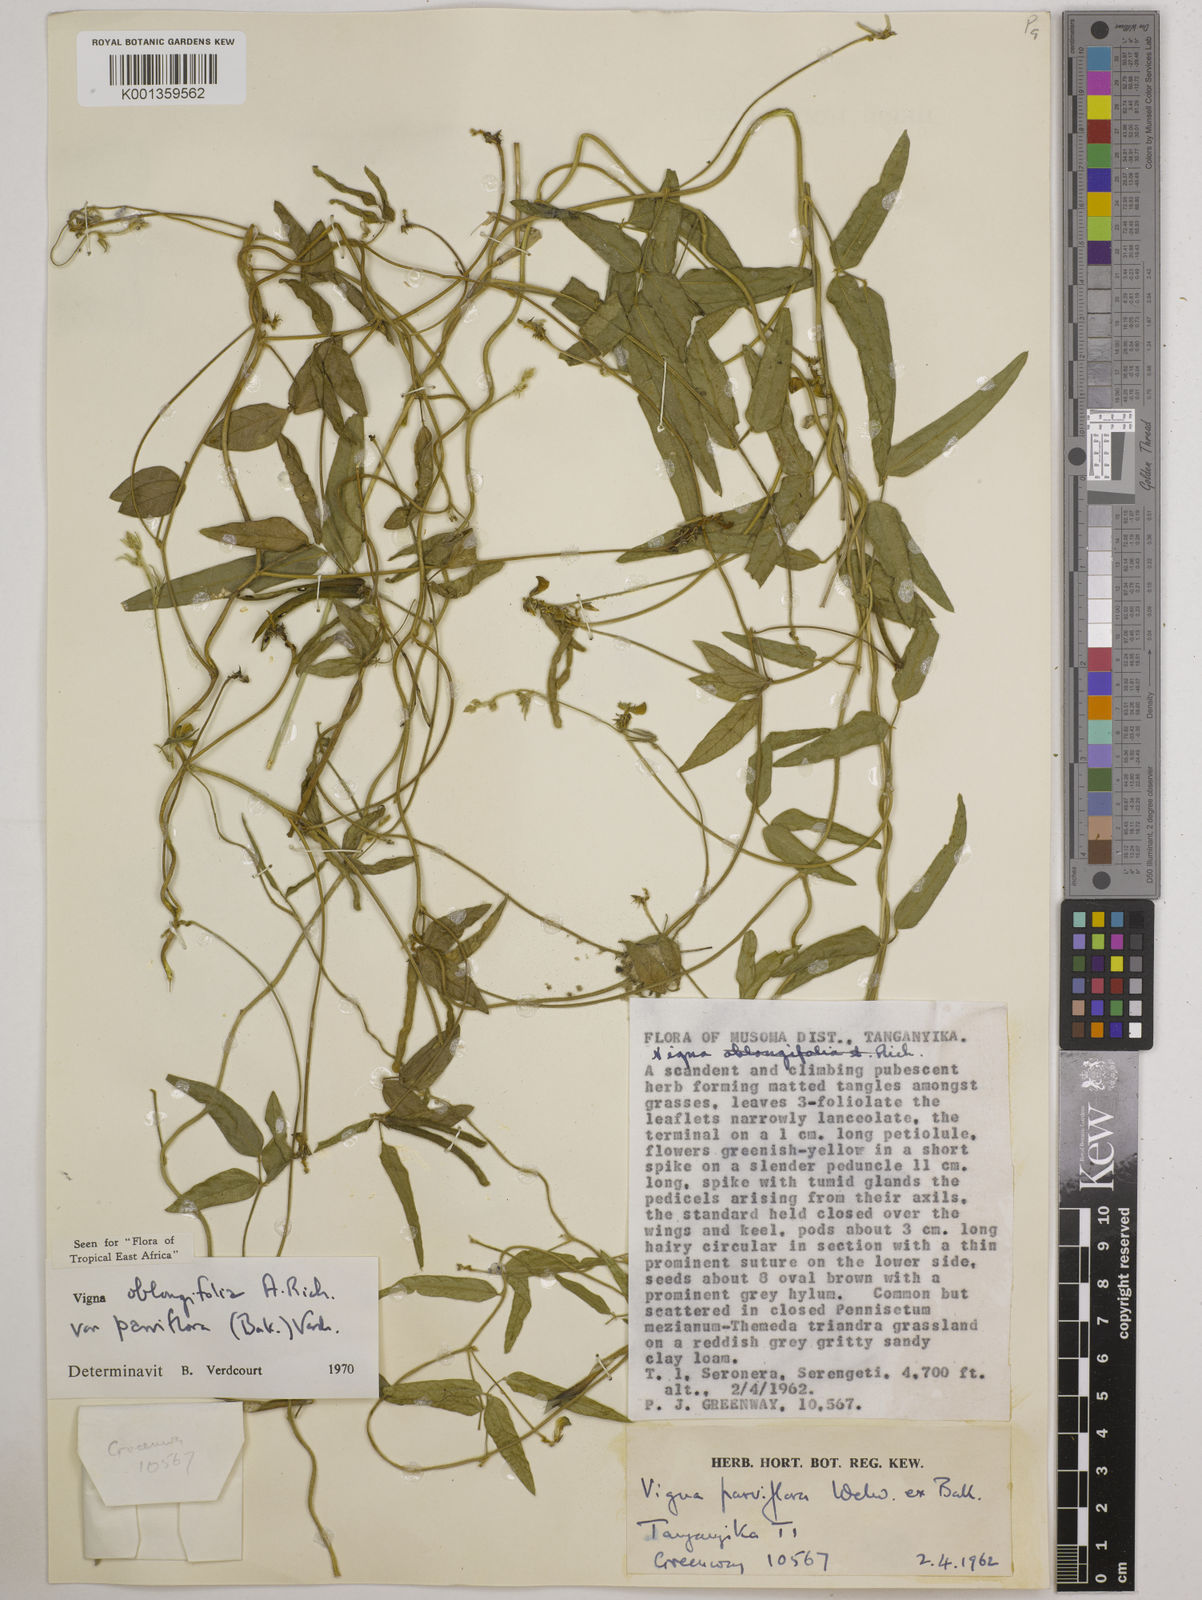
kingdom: Plantae
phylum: Tracheophyta
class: Magnoliopsida
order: Fabales
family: Fabaceae
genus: Vigna
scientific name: Vigna
